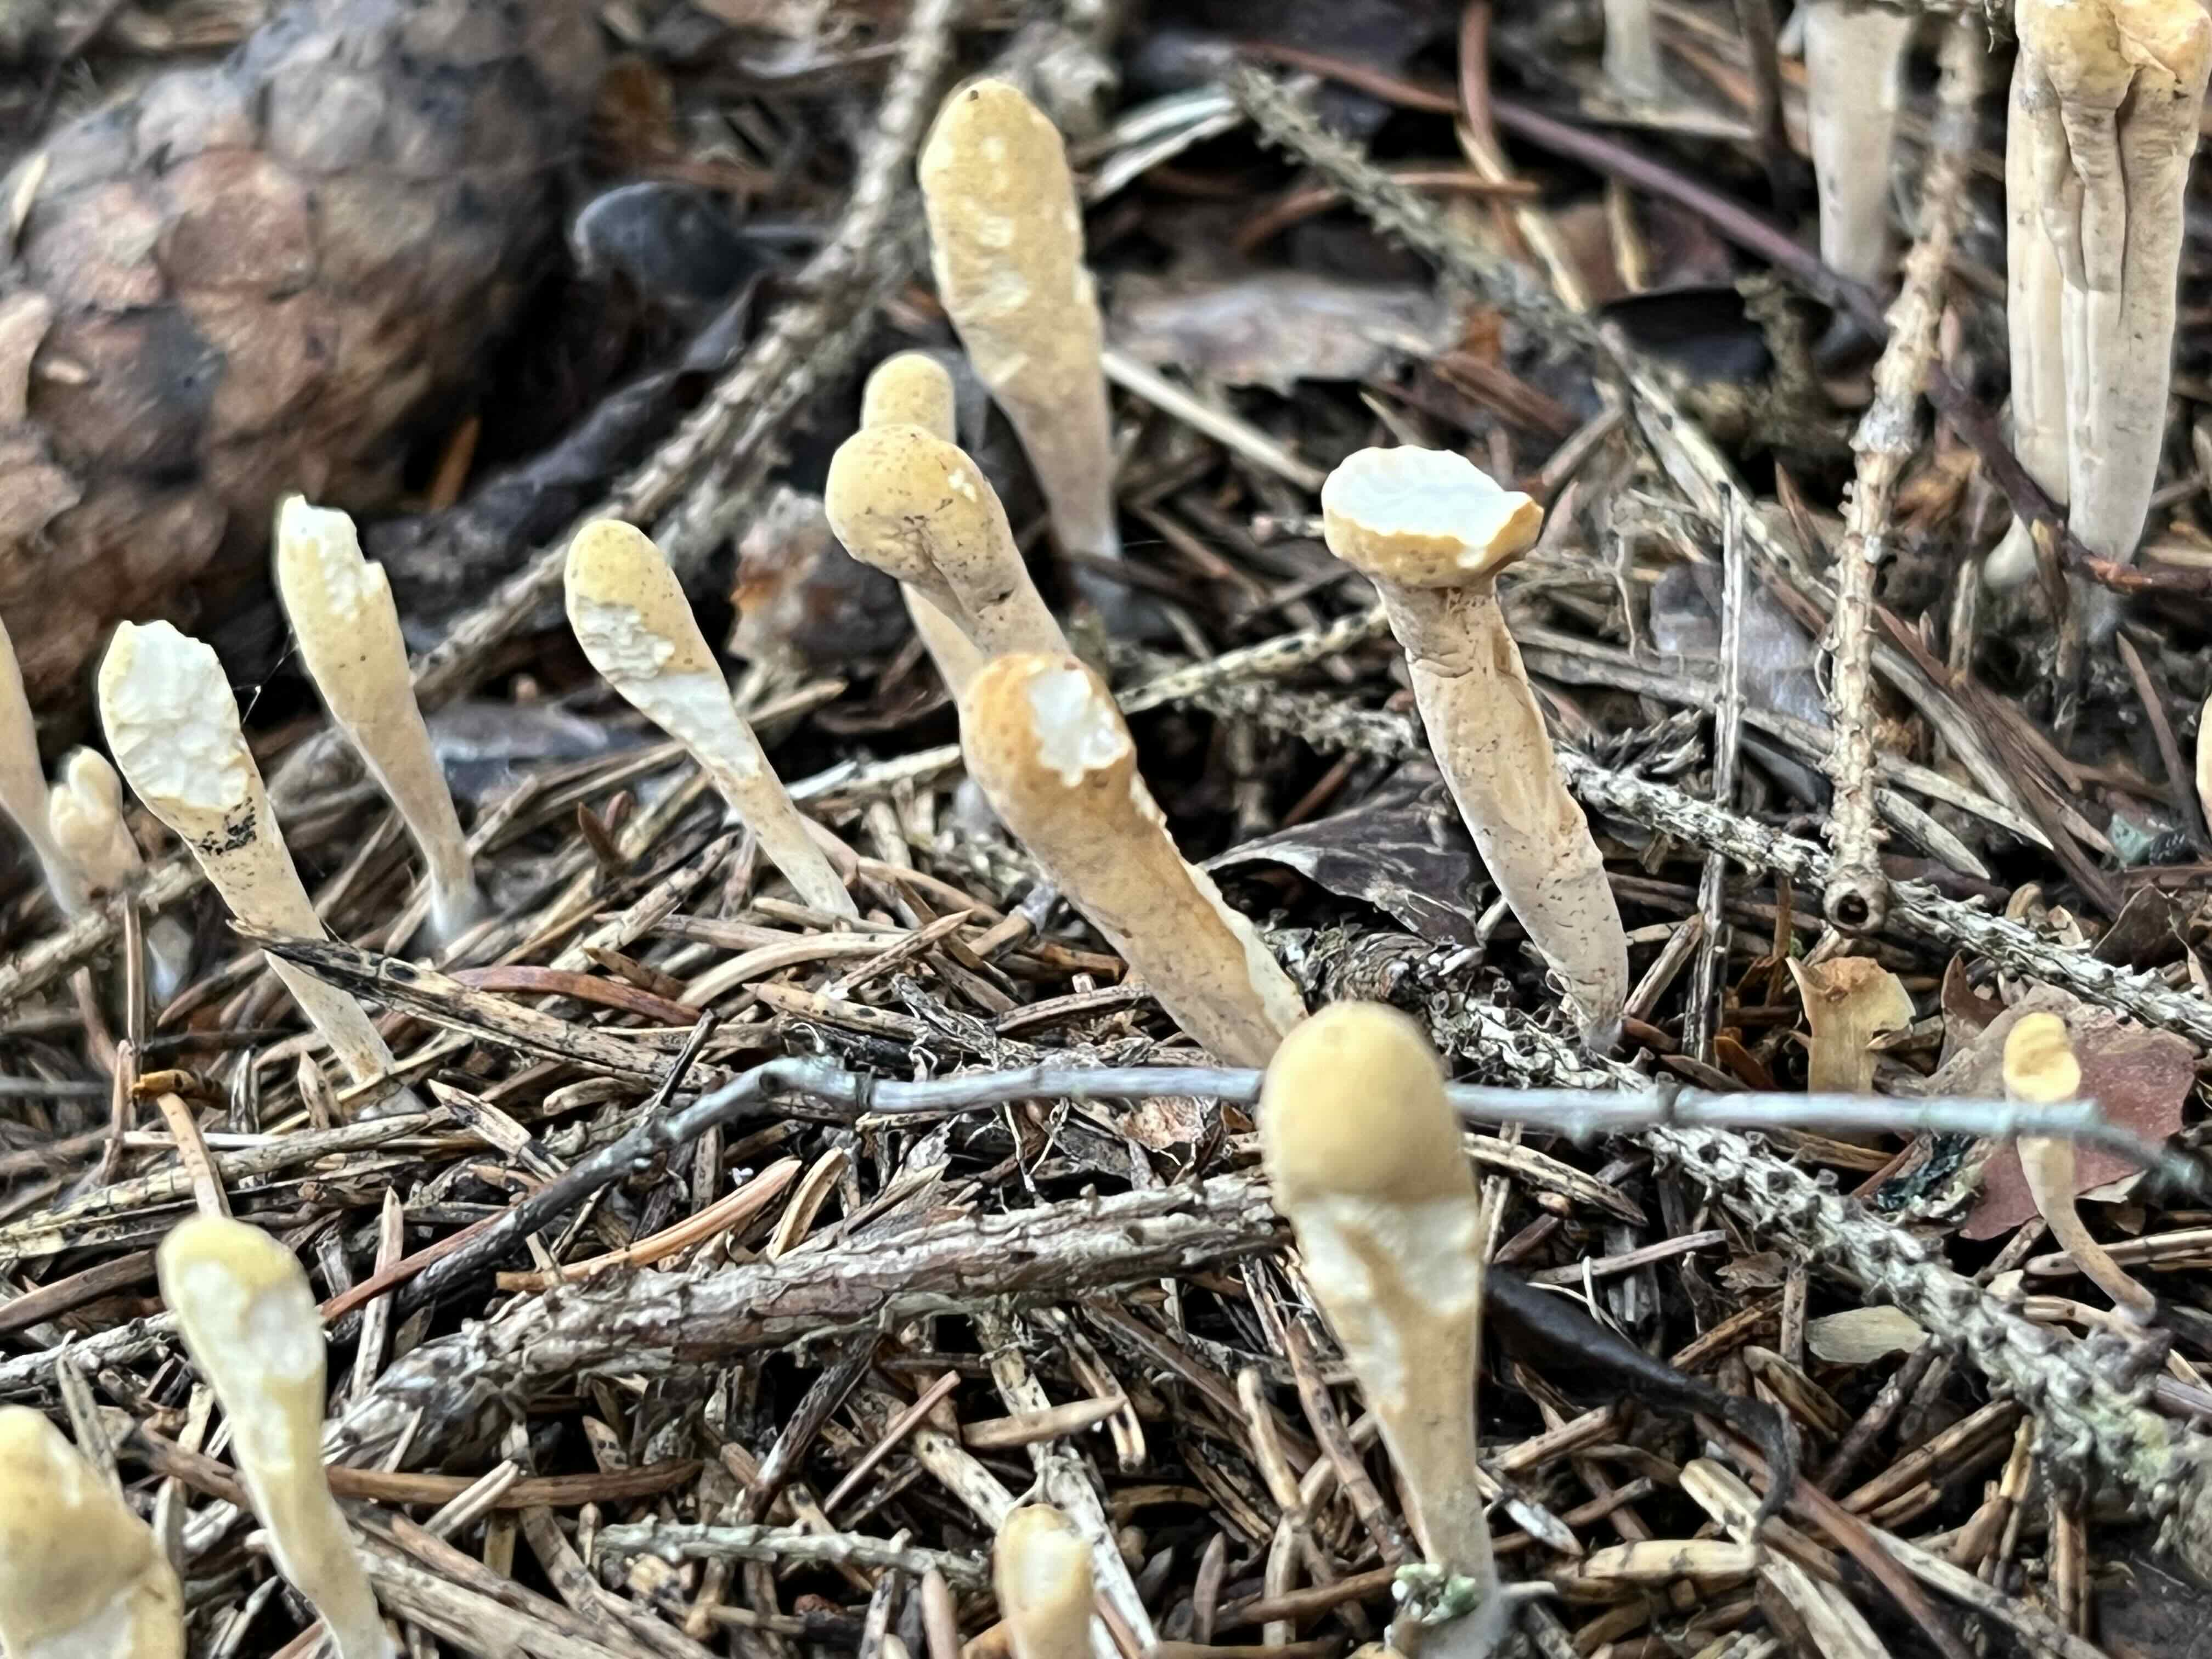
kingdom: Fungi
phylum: Basidiomycota
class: Agaricomycetes
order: Gomphales
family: Clavariadelphaceae
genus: Clavariadelphus
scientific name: Clavariadelphus
